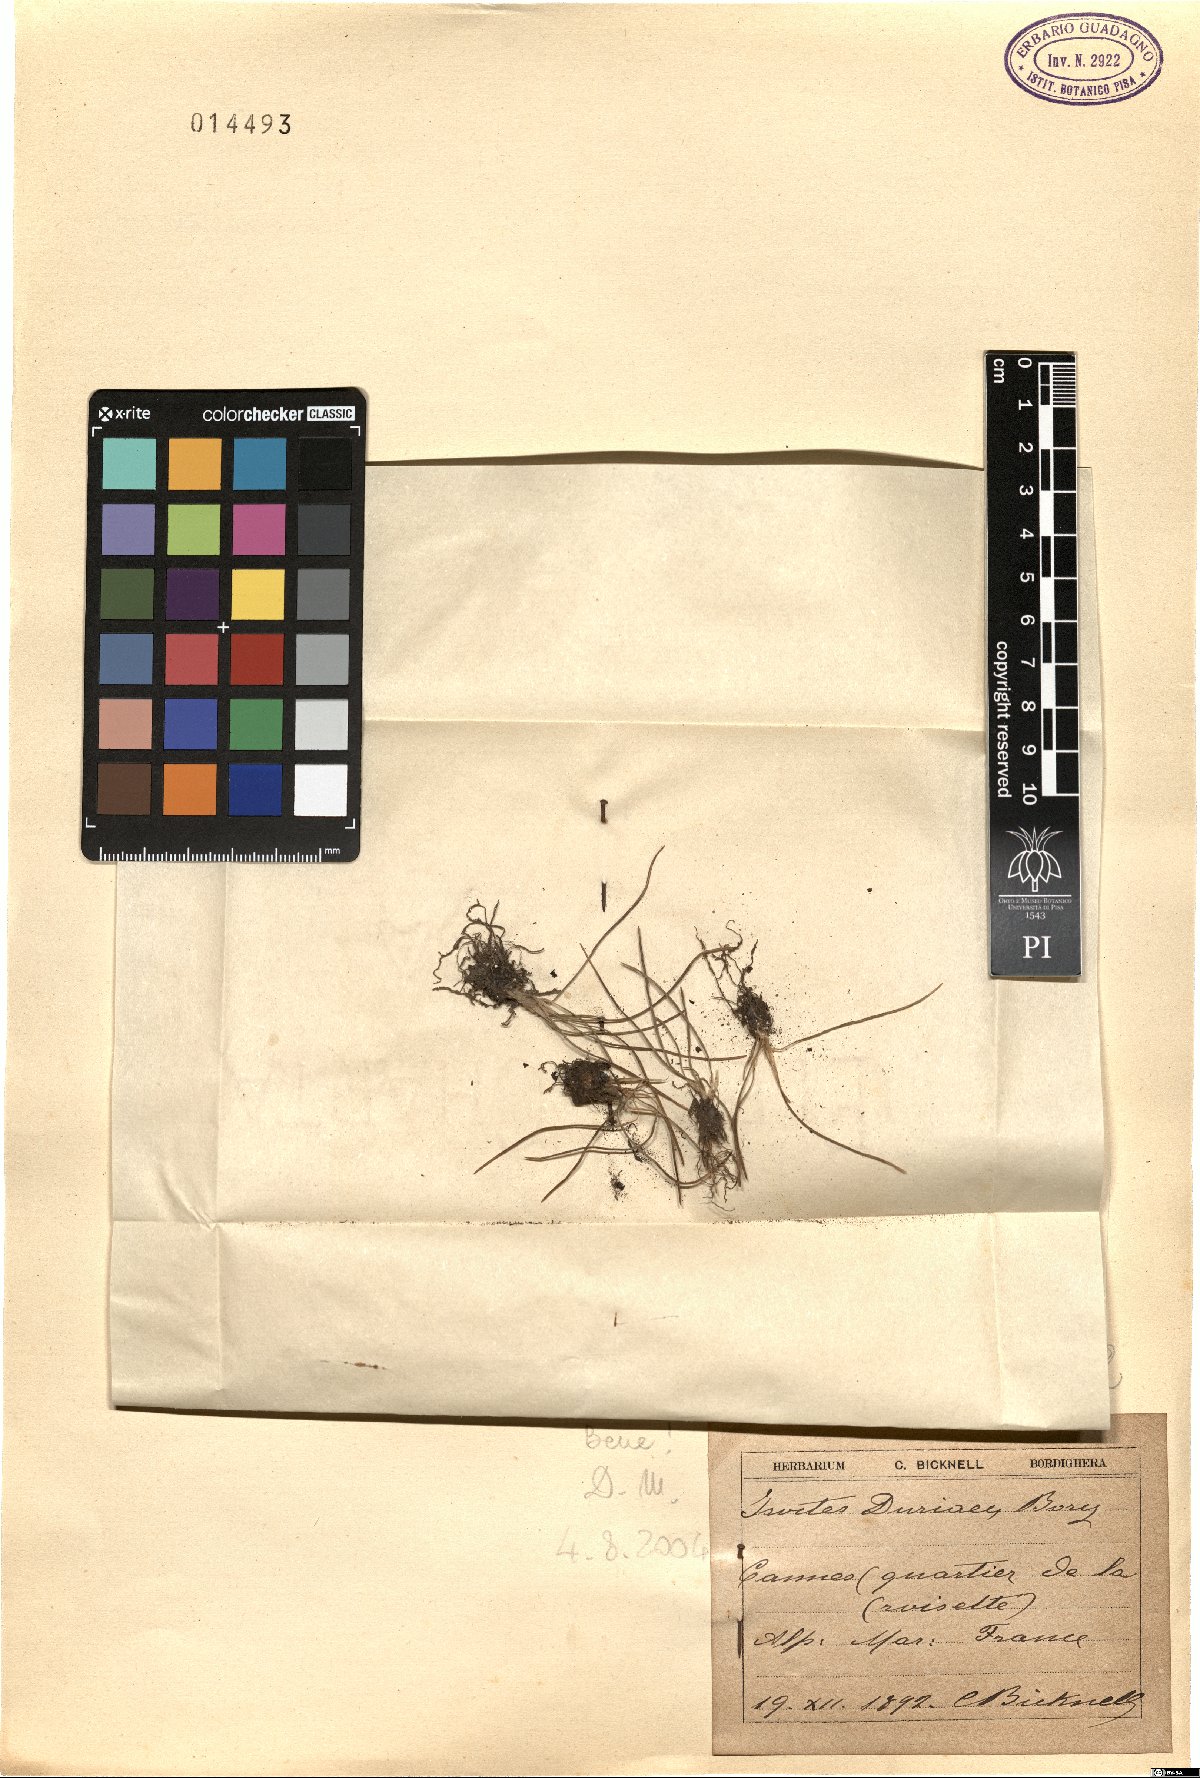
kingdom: Plantae
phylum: Tracheophyta
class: Lycopodiopsida
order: Isoetales
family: Isoetaceae
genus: Isoetes
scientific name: Isoetes duriei
